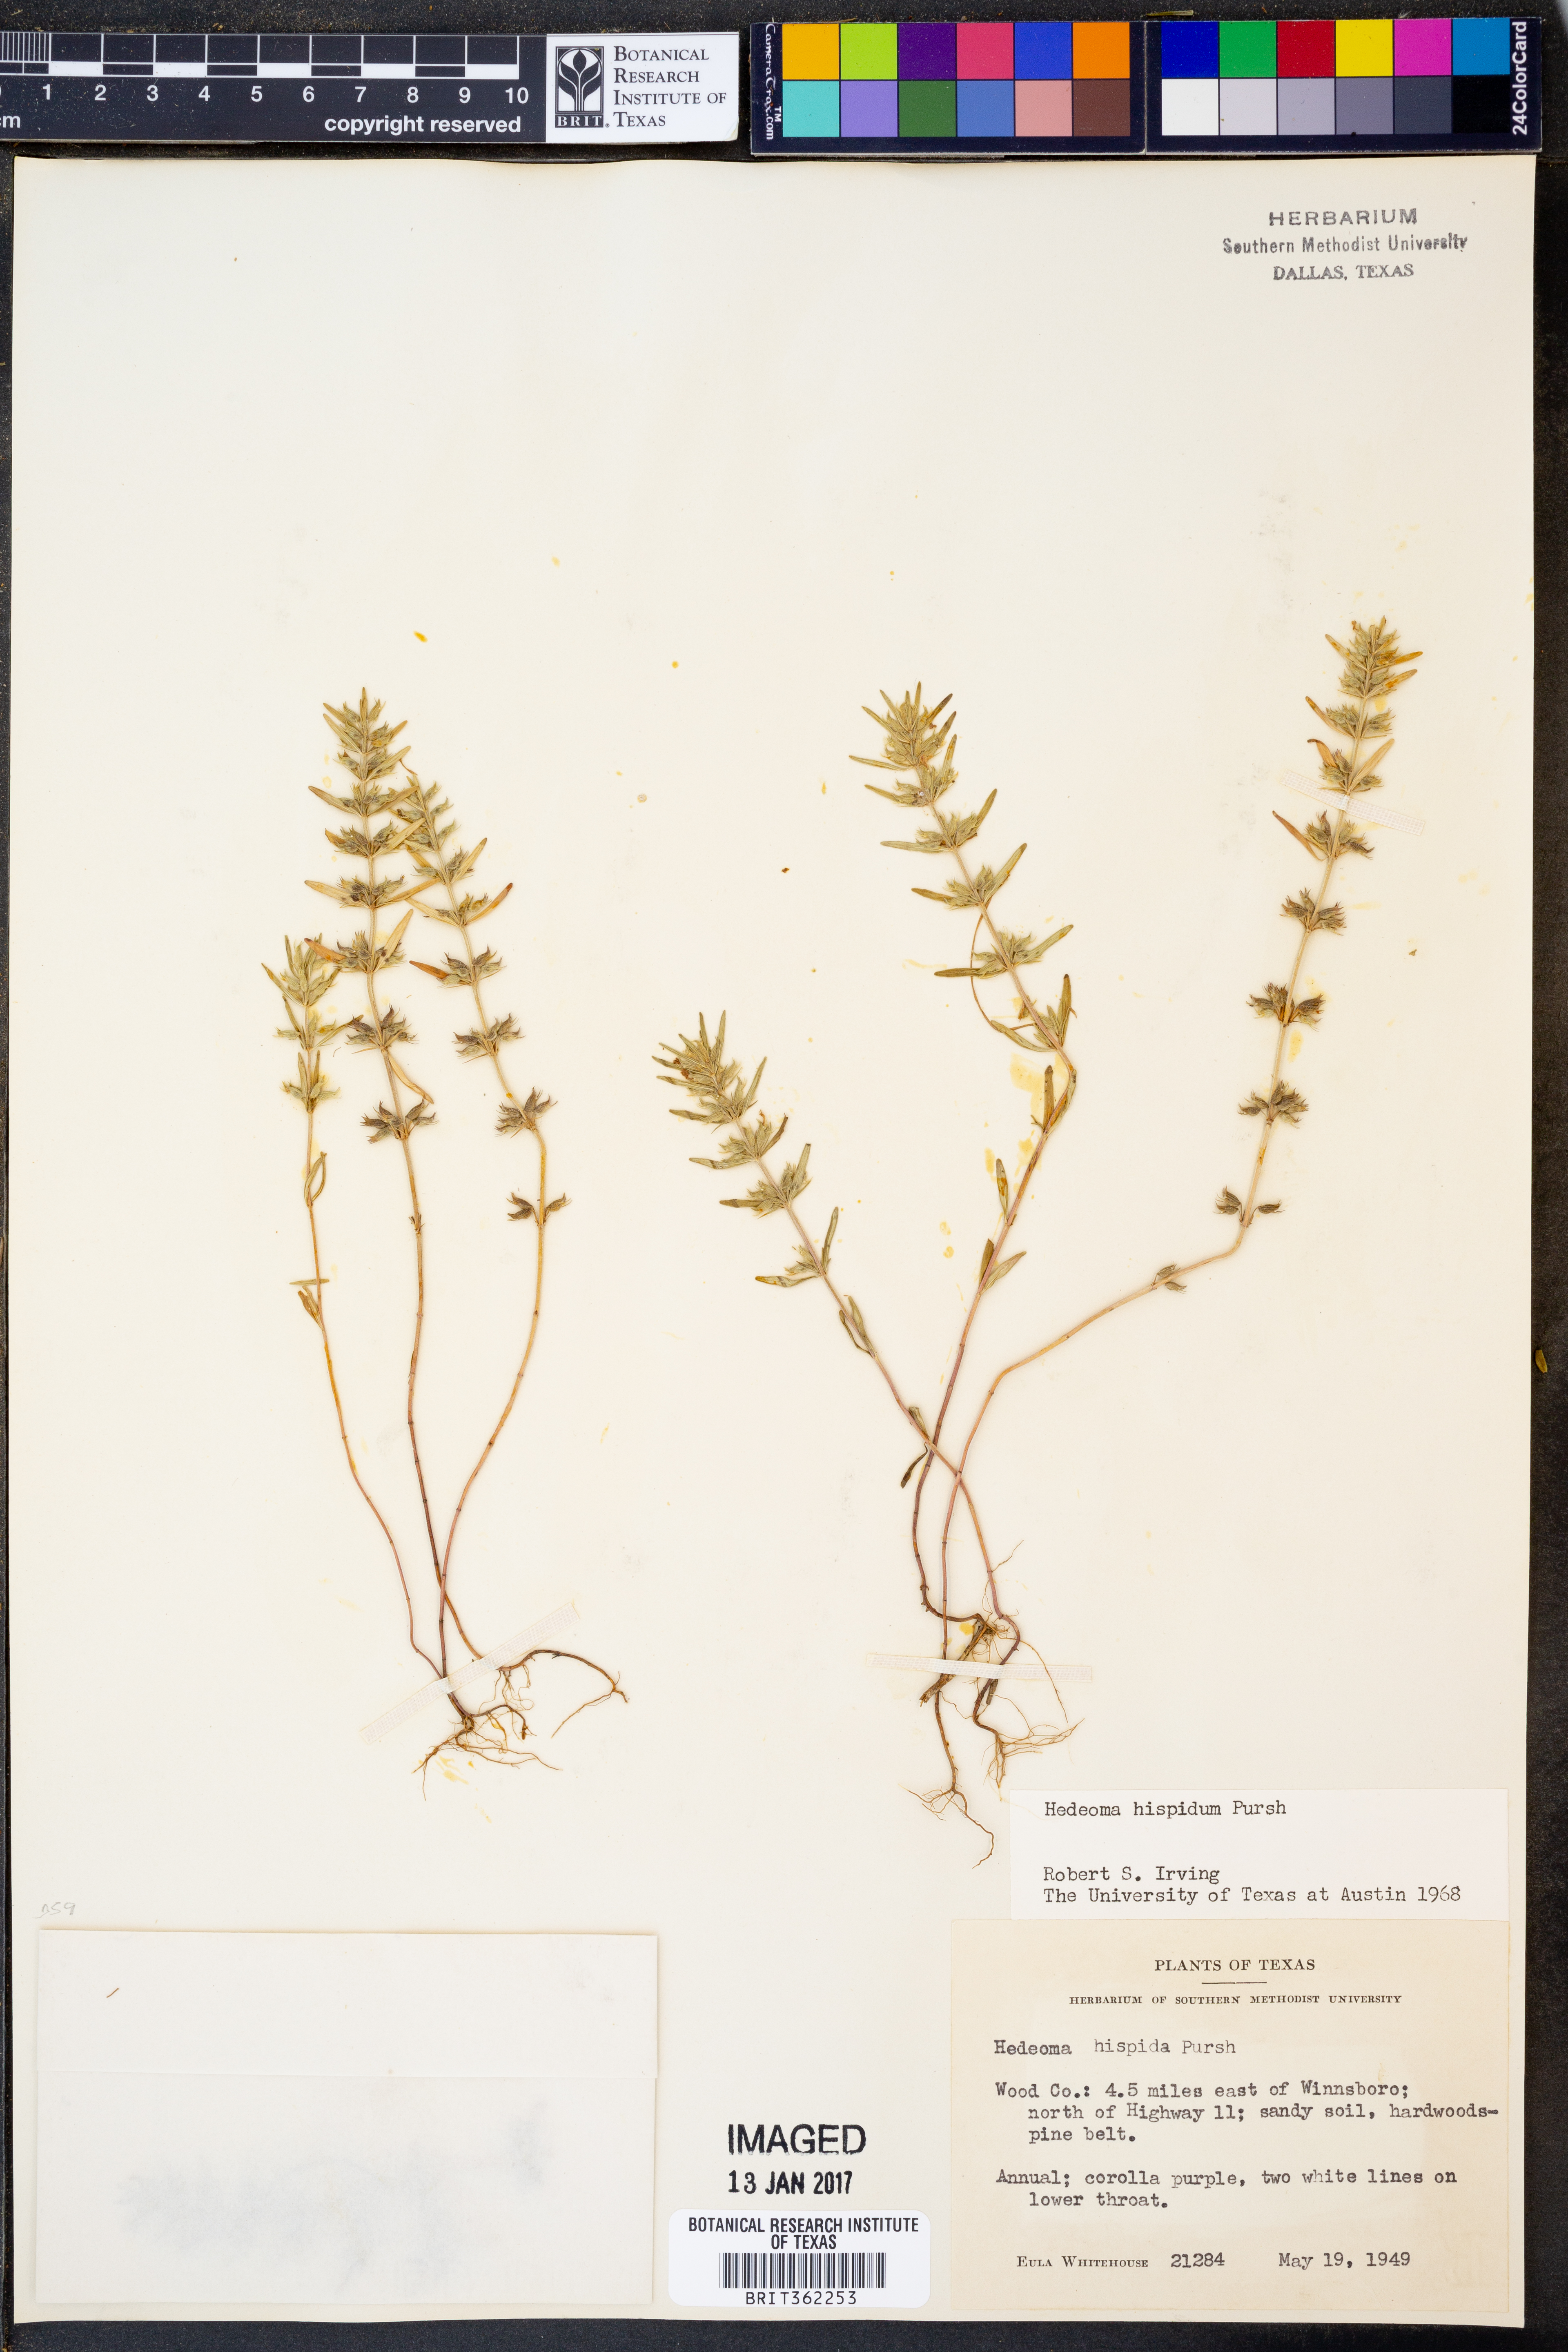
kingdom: Plantae
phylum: Tracheophyta
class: Magnoliopsida
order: Lamiales
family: Lamiaceae
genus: Hedeoma
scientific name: Hedeoma hispida
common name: Mock pennyroyal
